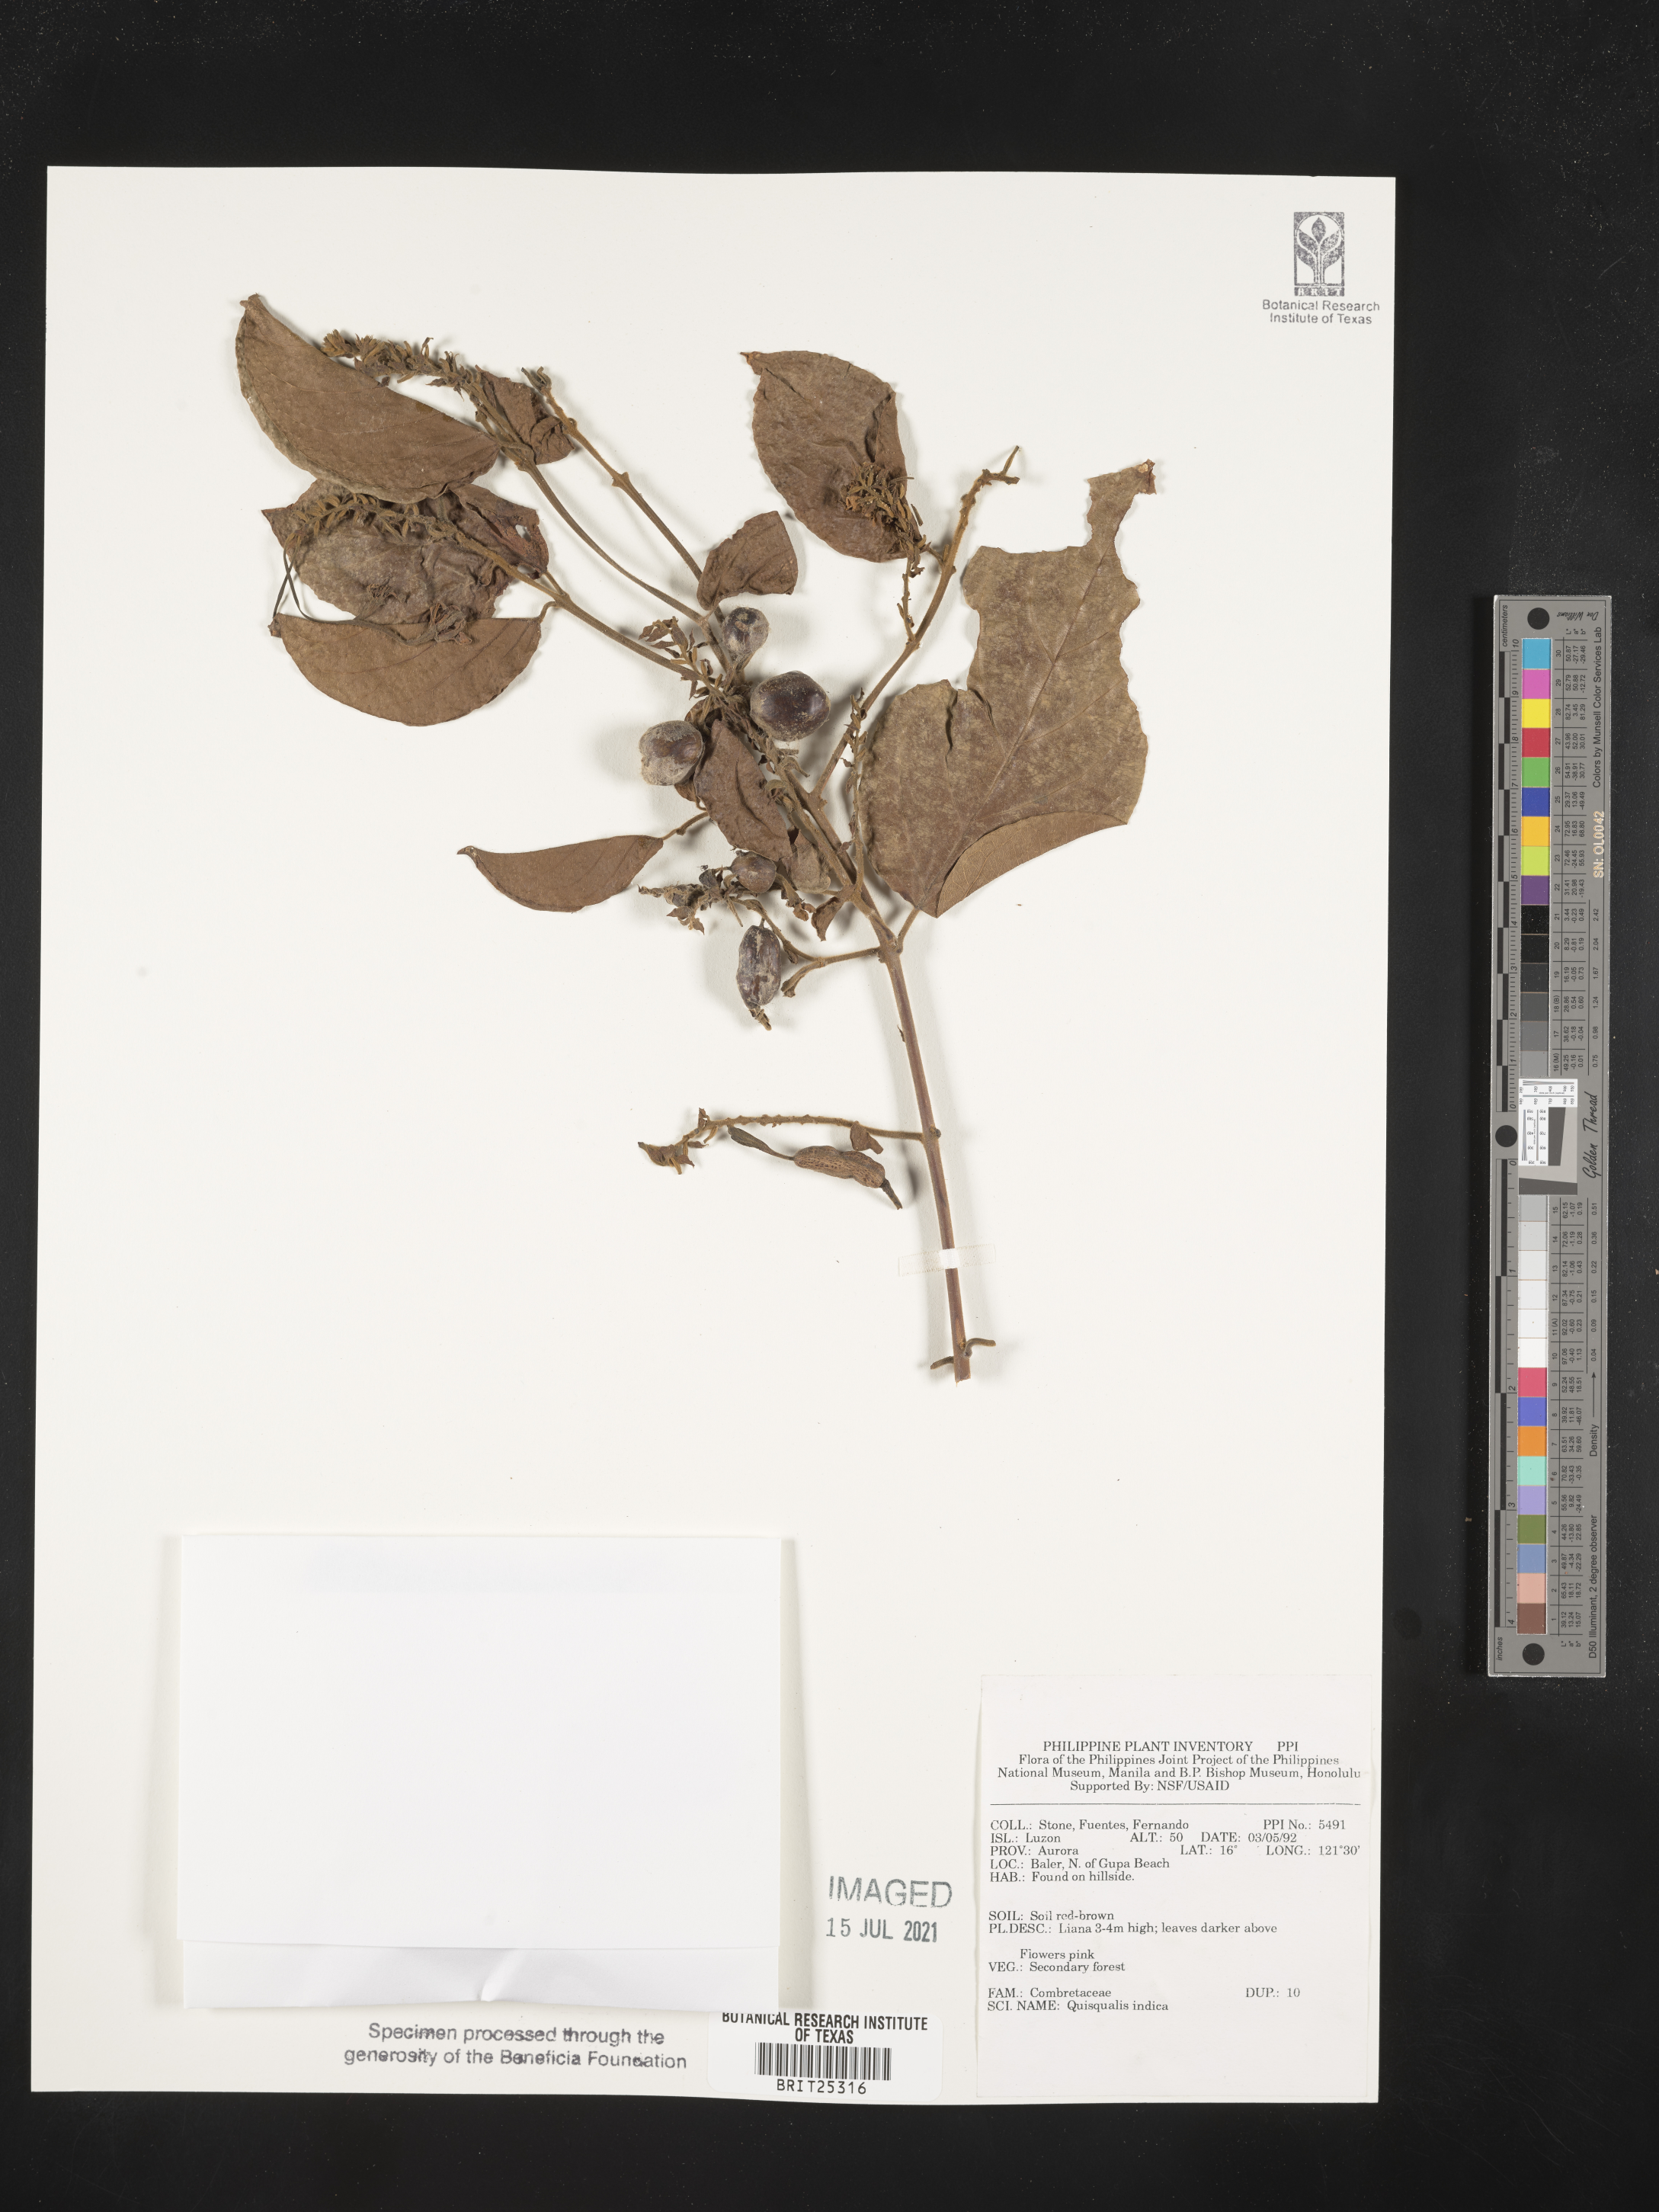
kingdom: Plantae
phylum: Tracheophyta
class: Magnoliopsida
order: Myrtales
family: Combretaceae
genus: Combretum
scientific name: Combretum indicum
